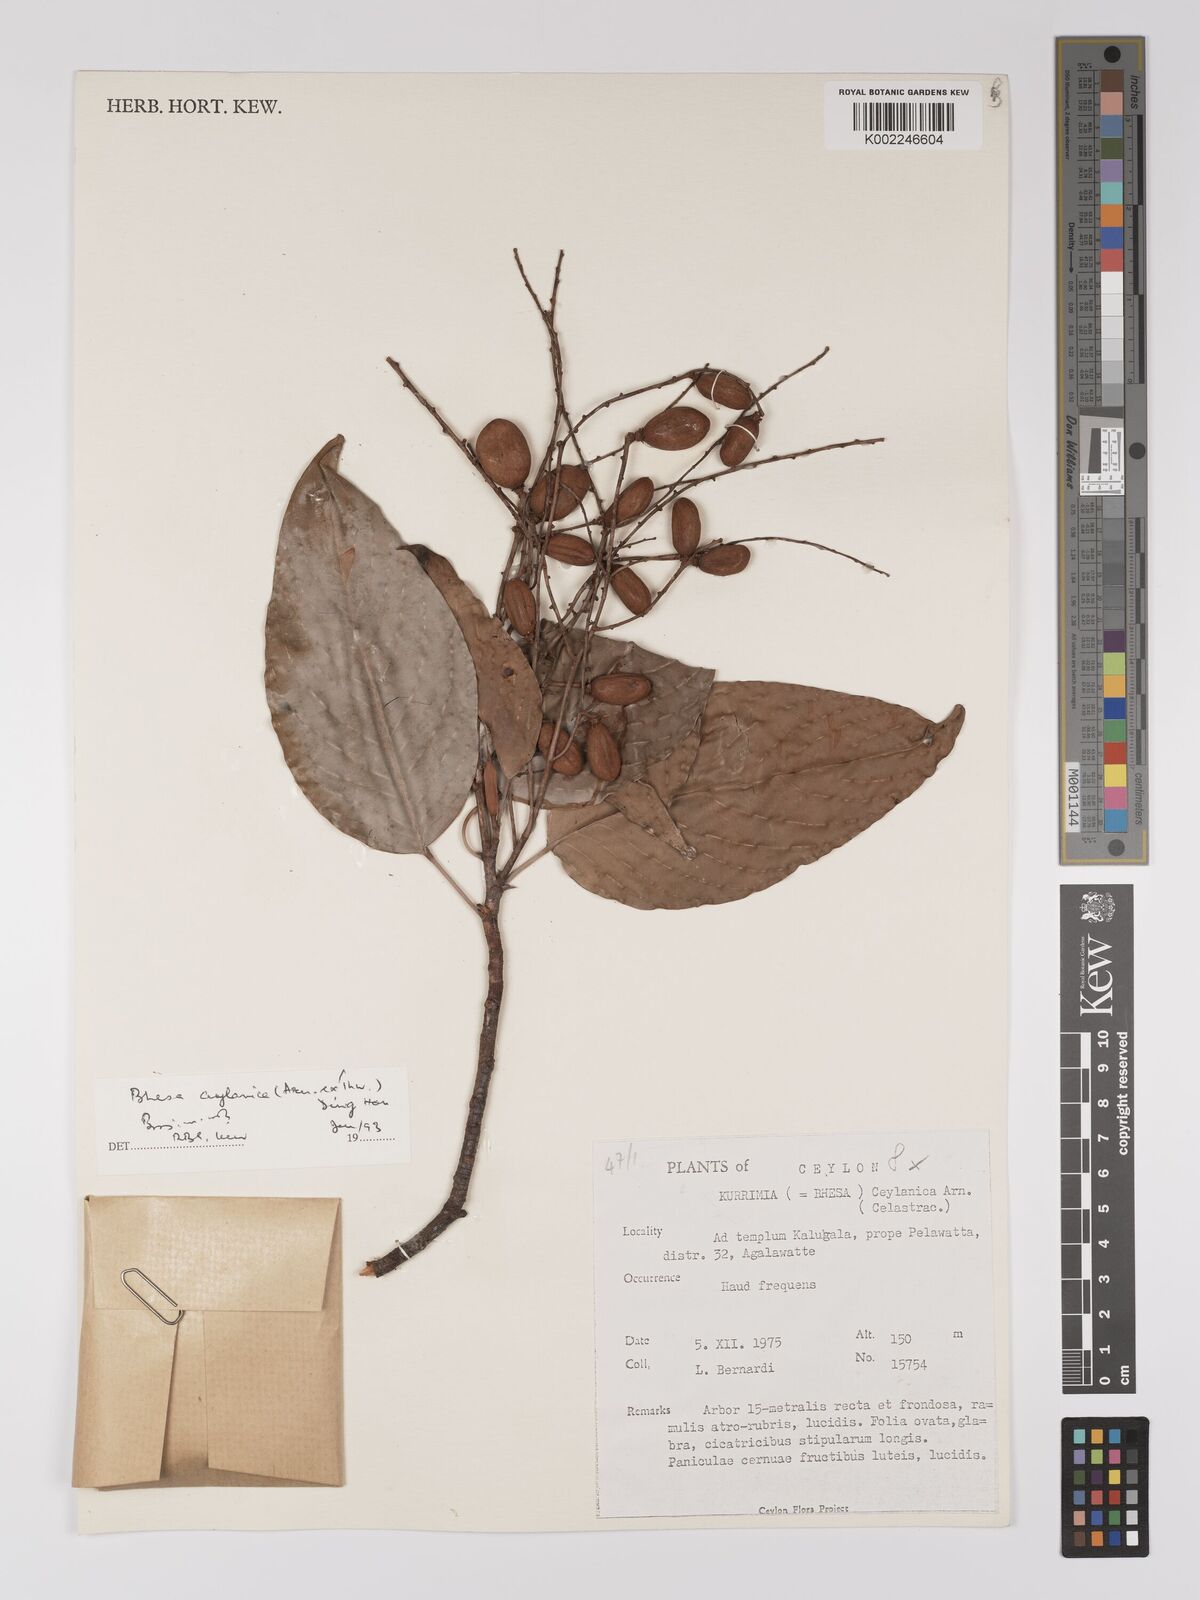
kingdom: Plantae
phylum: Tracheophyta
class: Magnoliopsida
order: Malpighiales
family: Centroplacaceae
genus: Bhesa
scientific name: Bhesa ceylanica
